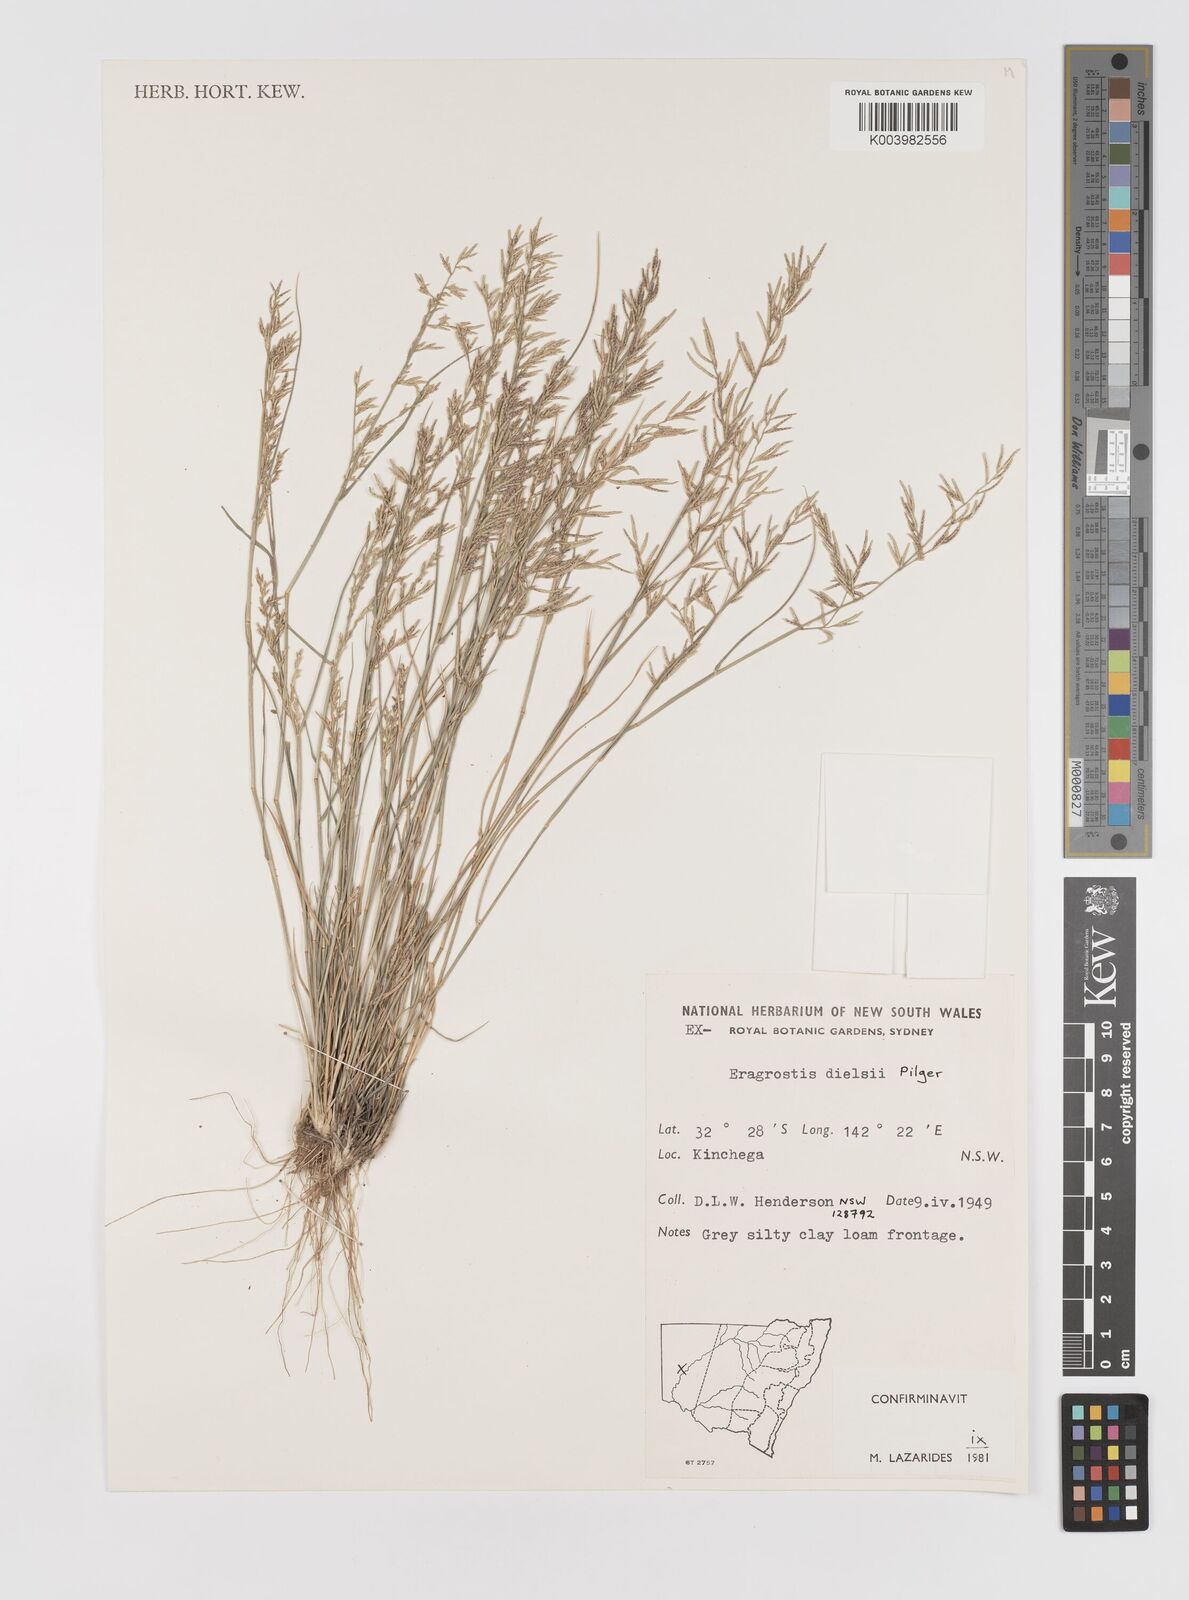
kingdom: Plantae
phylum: Tracheophyta
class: Liliopsida
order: Poales
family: Poaceae
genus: Eragrostis
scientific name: Eragrostis dielsii
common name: Lovegrass
